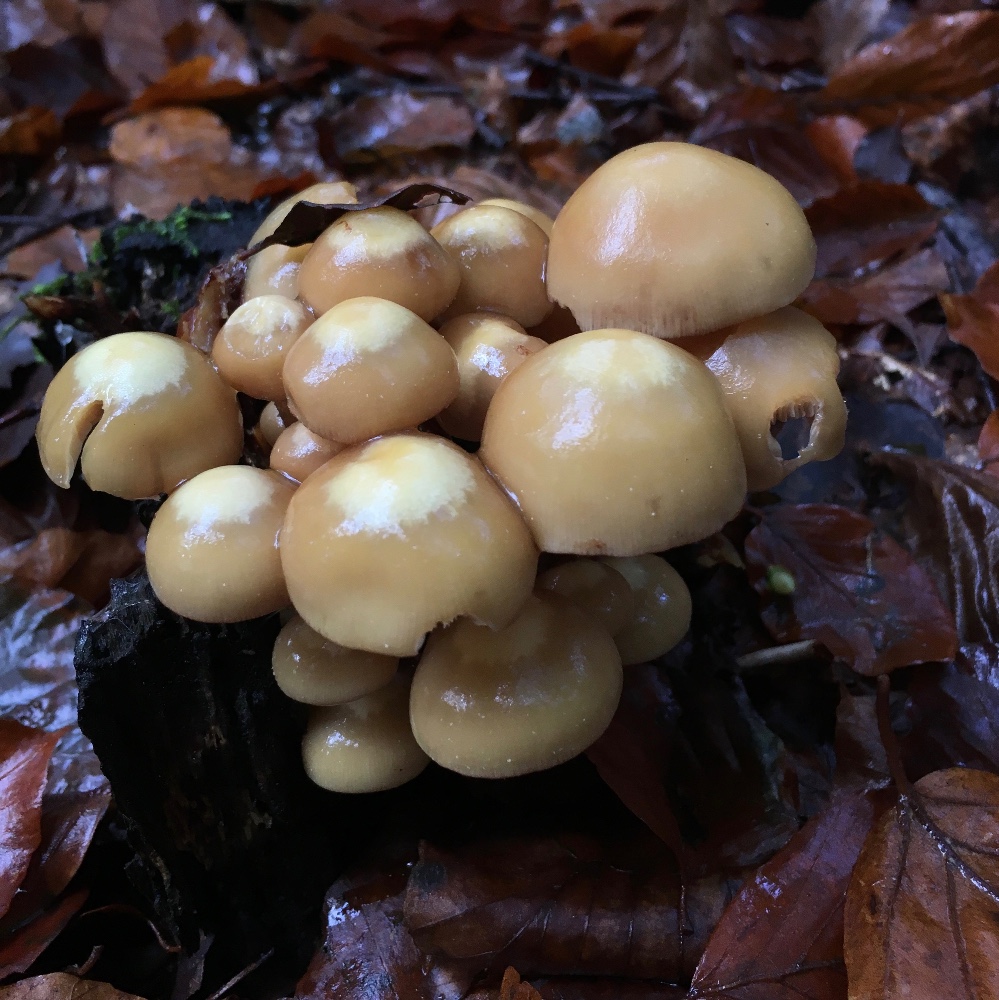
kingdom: Fungi
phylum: Basidiomycota
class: Agaricomycetes
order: Agaricales
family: Strophariaceae
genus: Kuehneromyces
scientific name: Kuehneromyces mutabilis
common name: foranderlig skælhat
